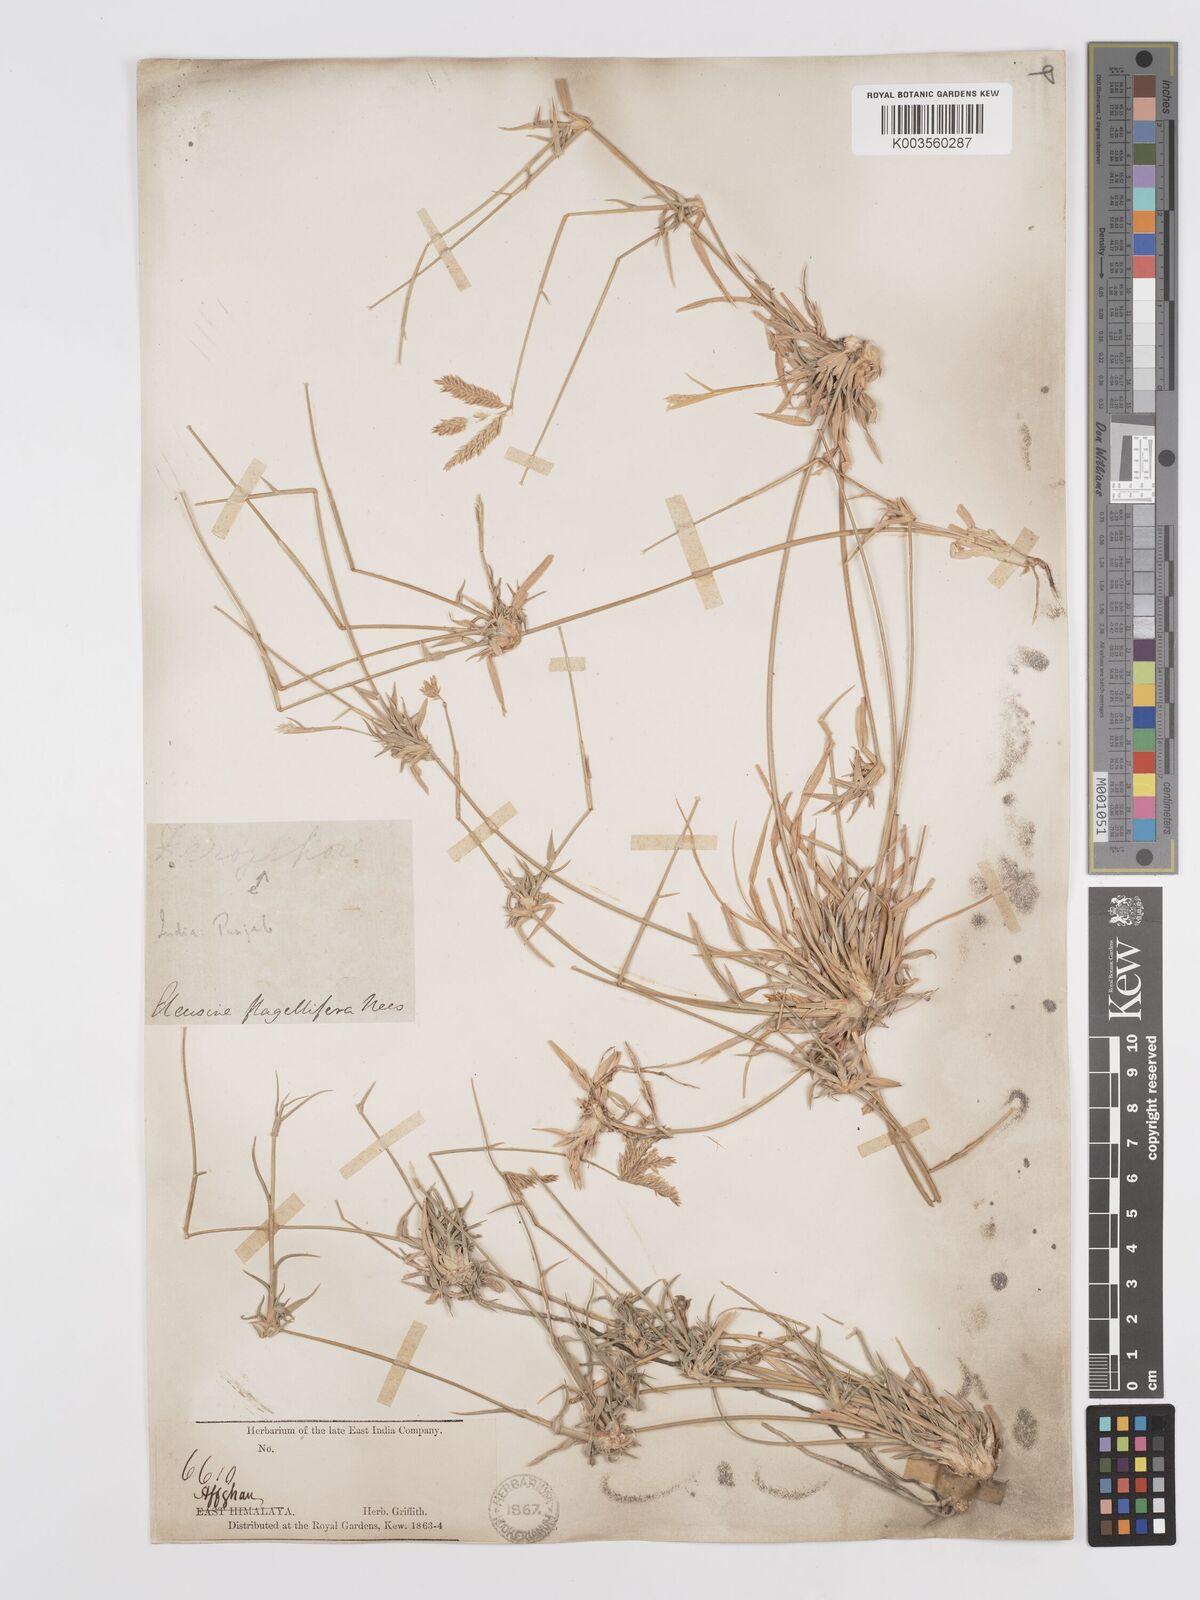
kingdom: Plantae
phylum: Tracheophyta
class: Liliopsida
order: Poales
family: Poaceae
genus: Chloris
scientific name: Chloris flagellifera
